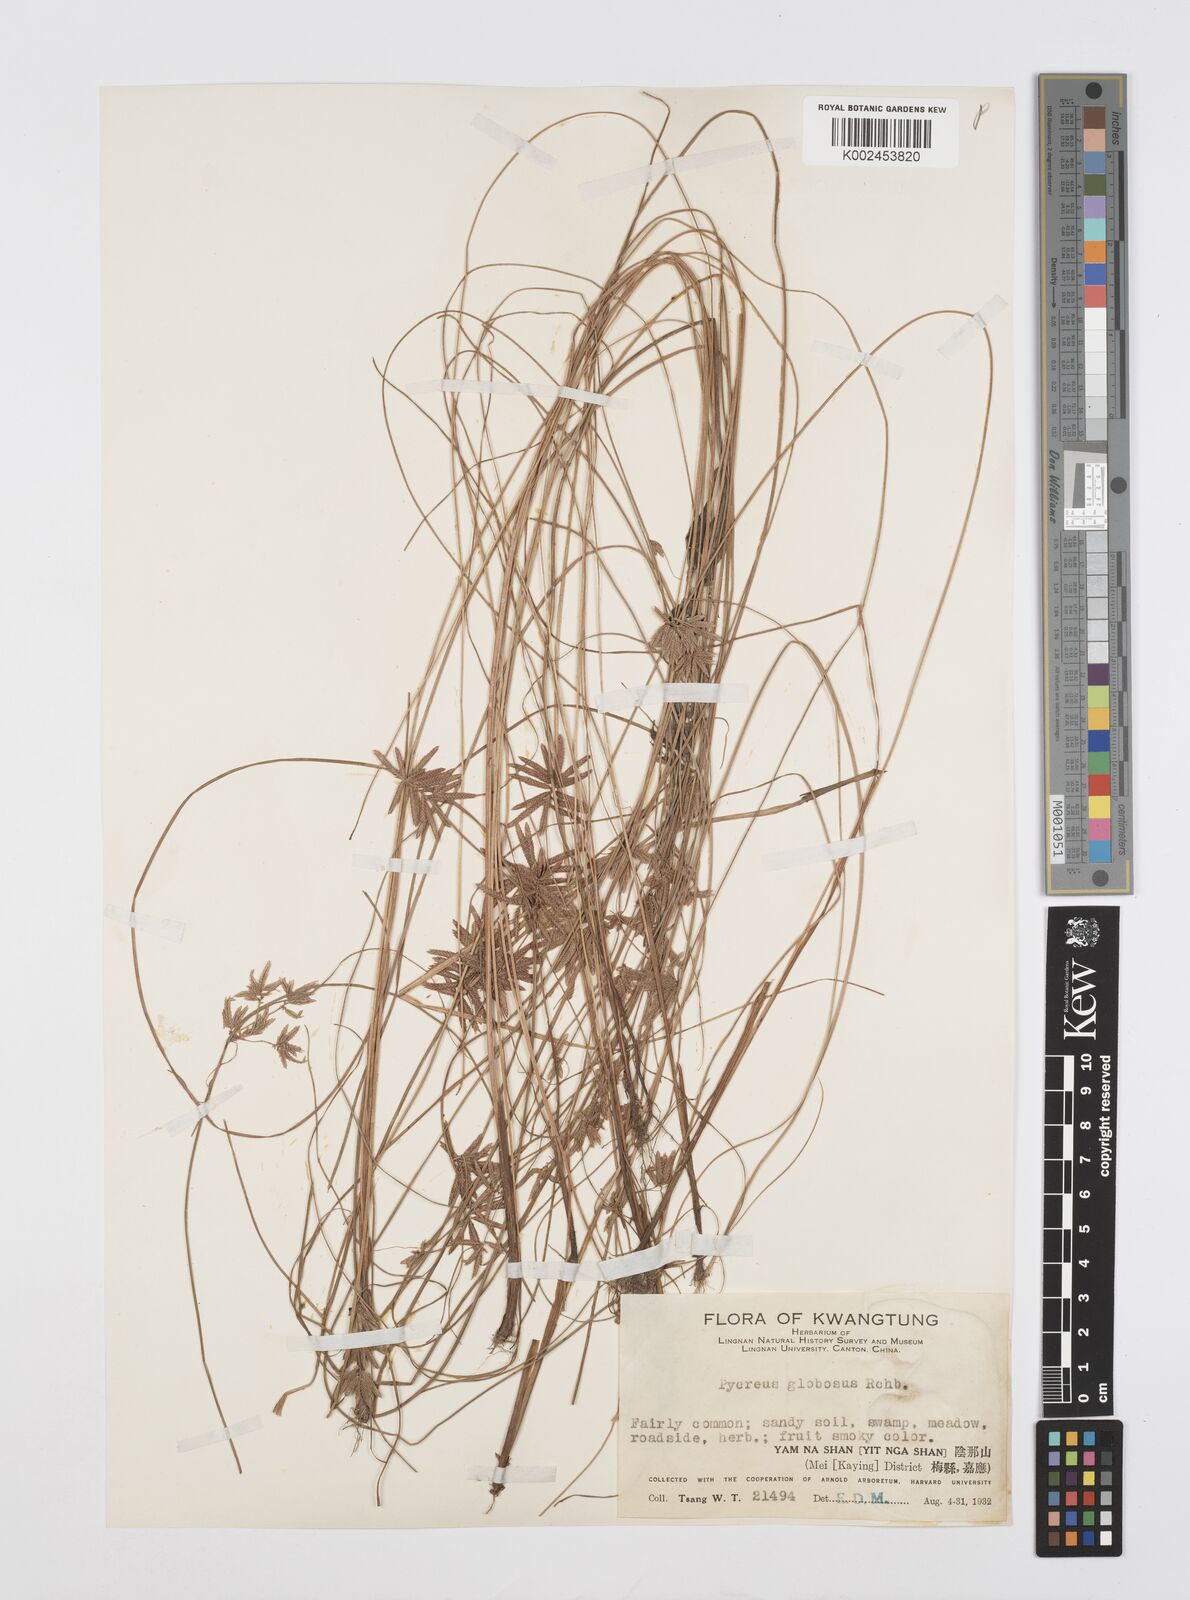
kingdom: Plantae
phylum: Tracheophyta
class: Liliopsida
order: Poales
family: Cyperaceae
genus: Cyperus
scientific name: Cyperus flavidus
